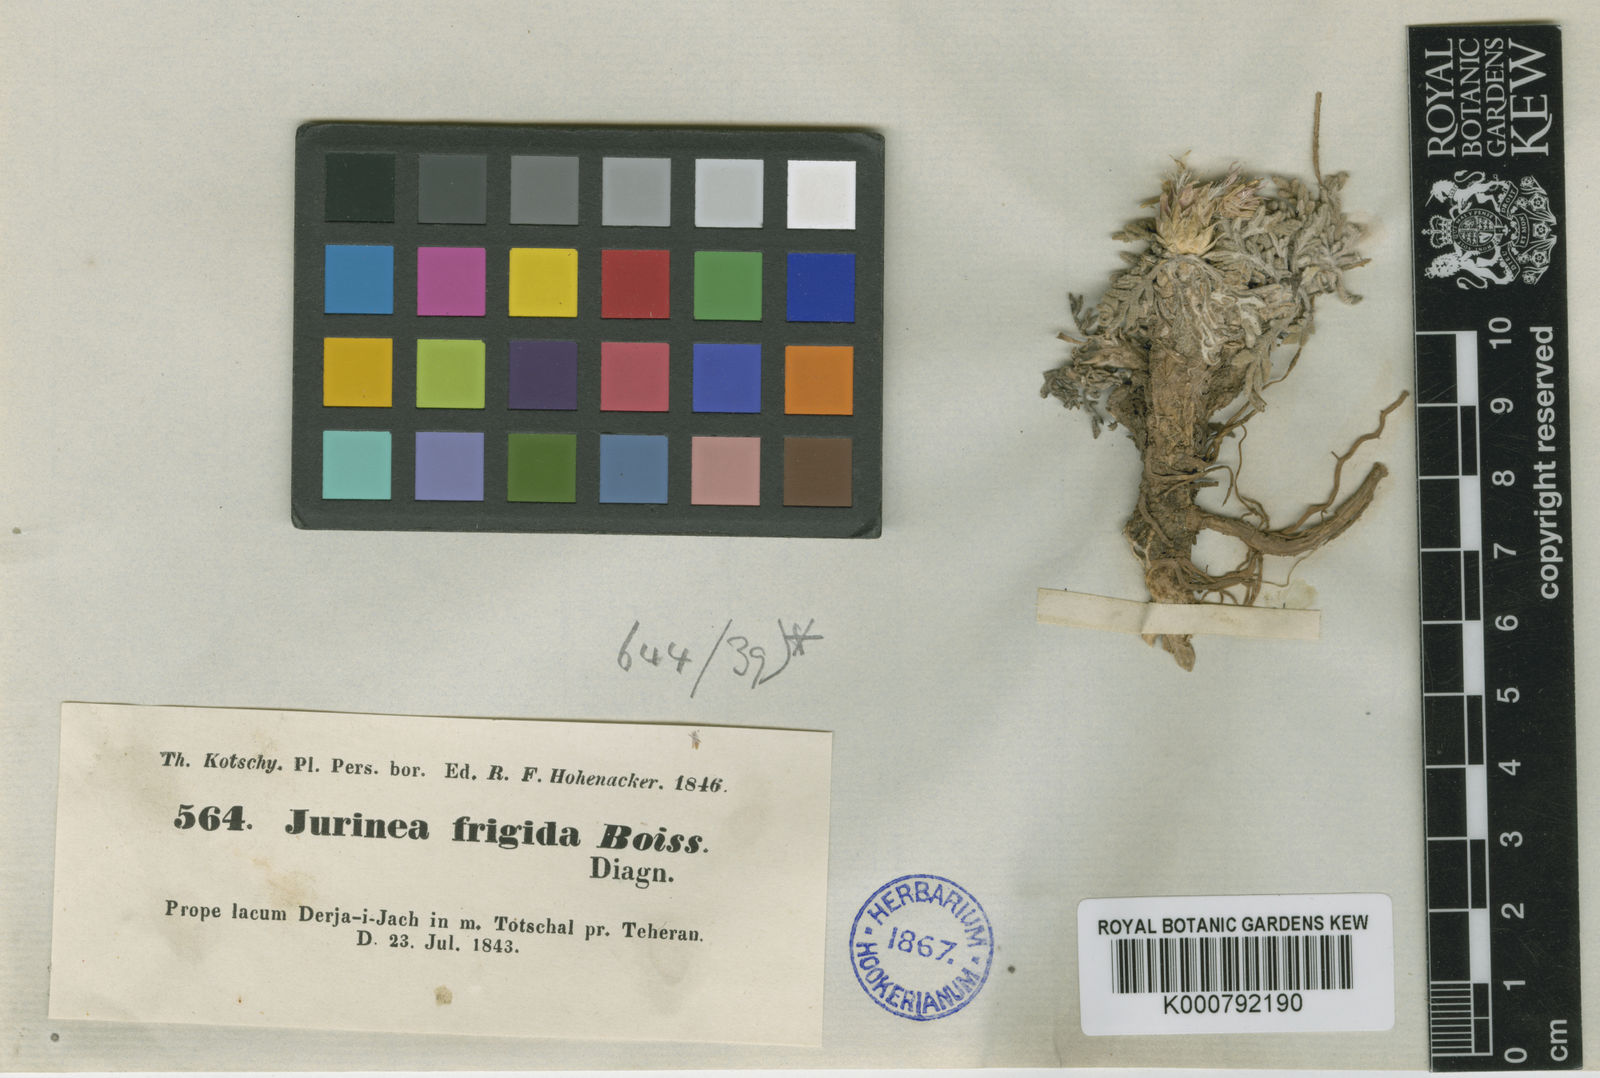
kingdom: Plantae
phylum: Tracheophyta
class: Magnoliopsida
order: Asterales
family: Asteraceae
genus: Jurinea
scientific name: Jurinea frigida
